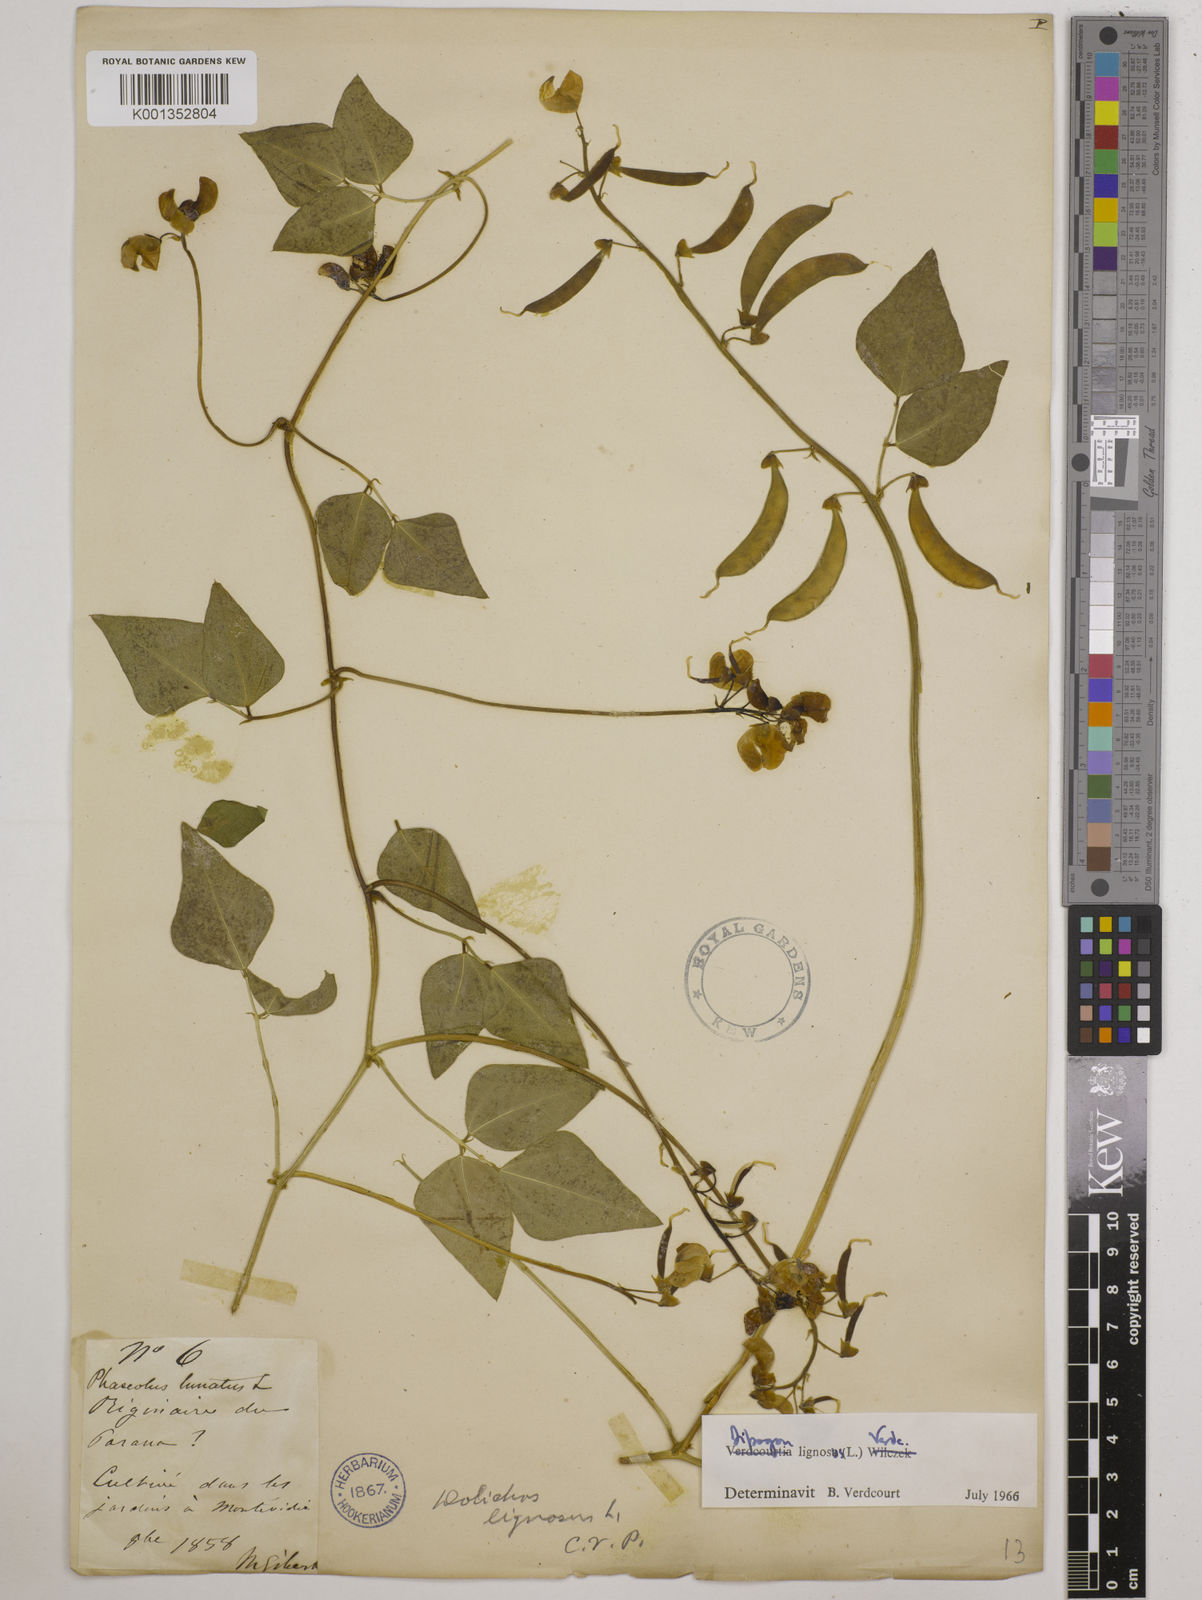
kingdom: Plantae
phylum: Tracheophyta
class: Magnoliopsida
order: Fabales
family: Fabaceae
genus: Dipogon
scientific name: Dipogon lignosus
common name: Okie bean
